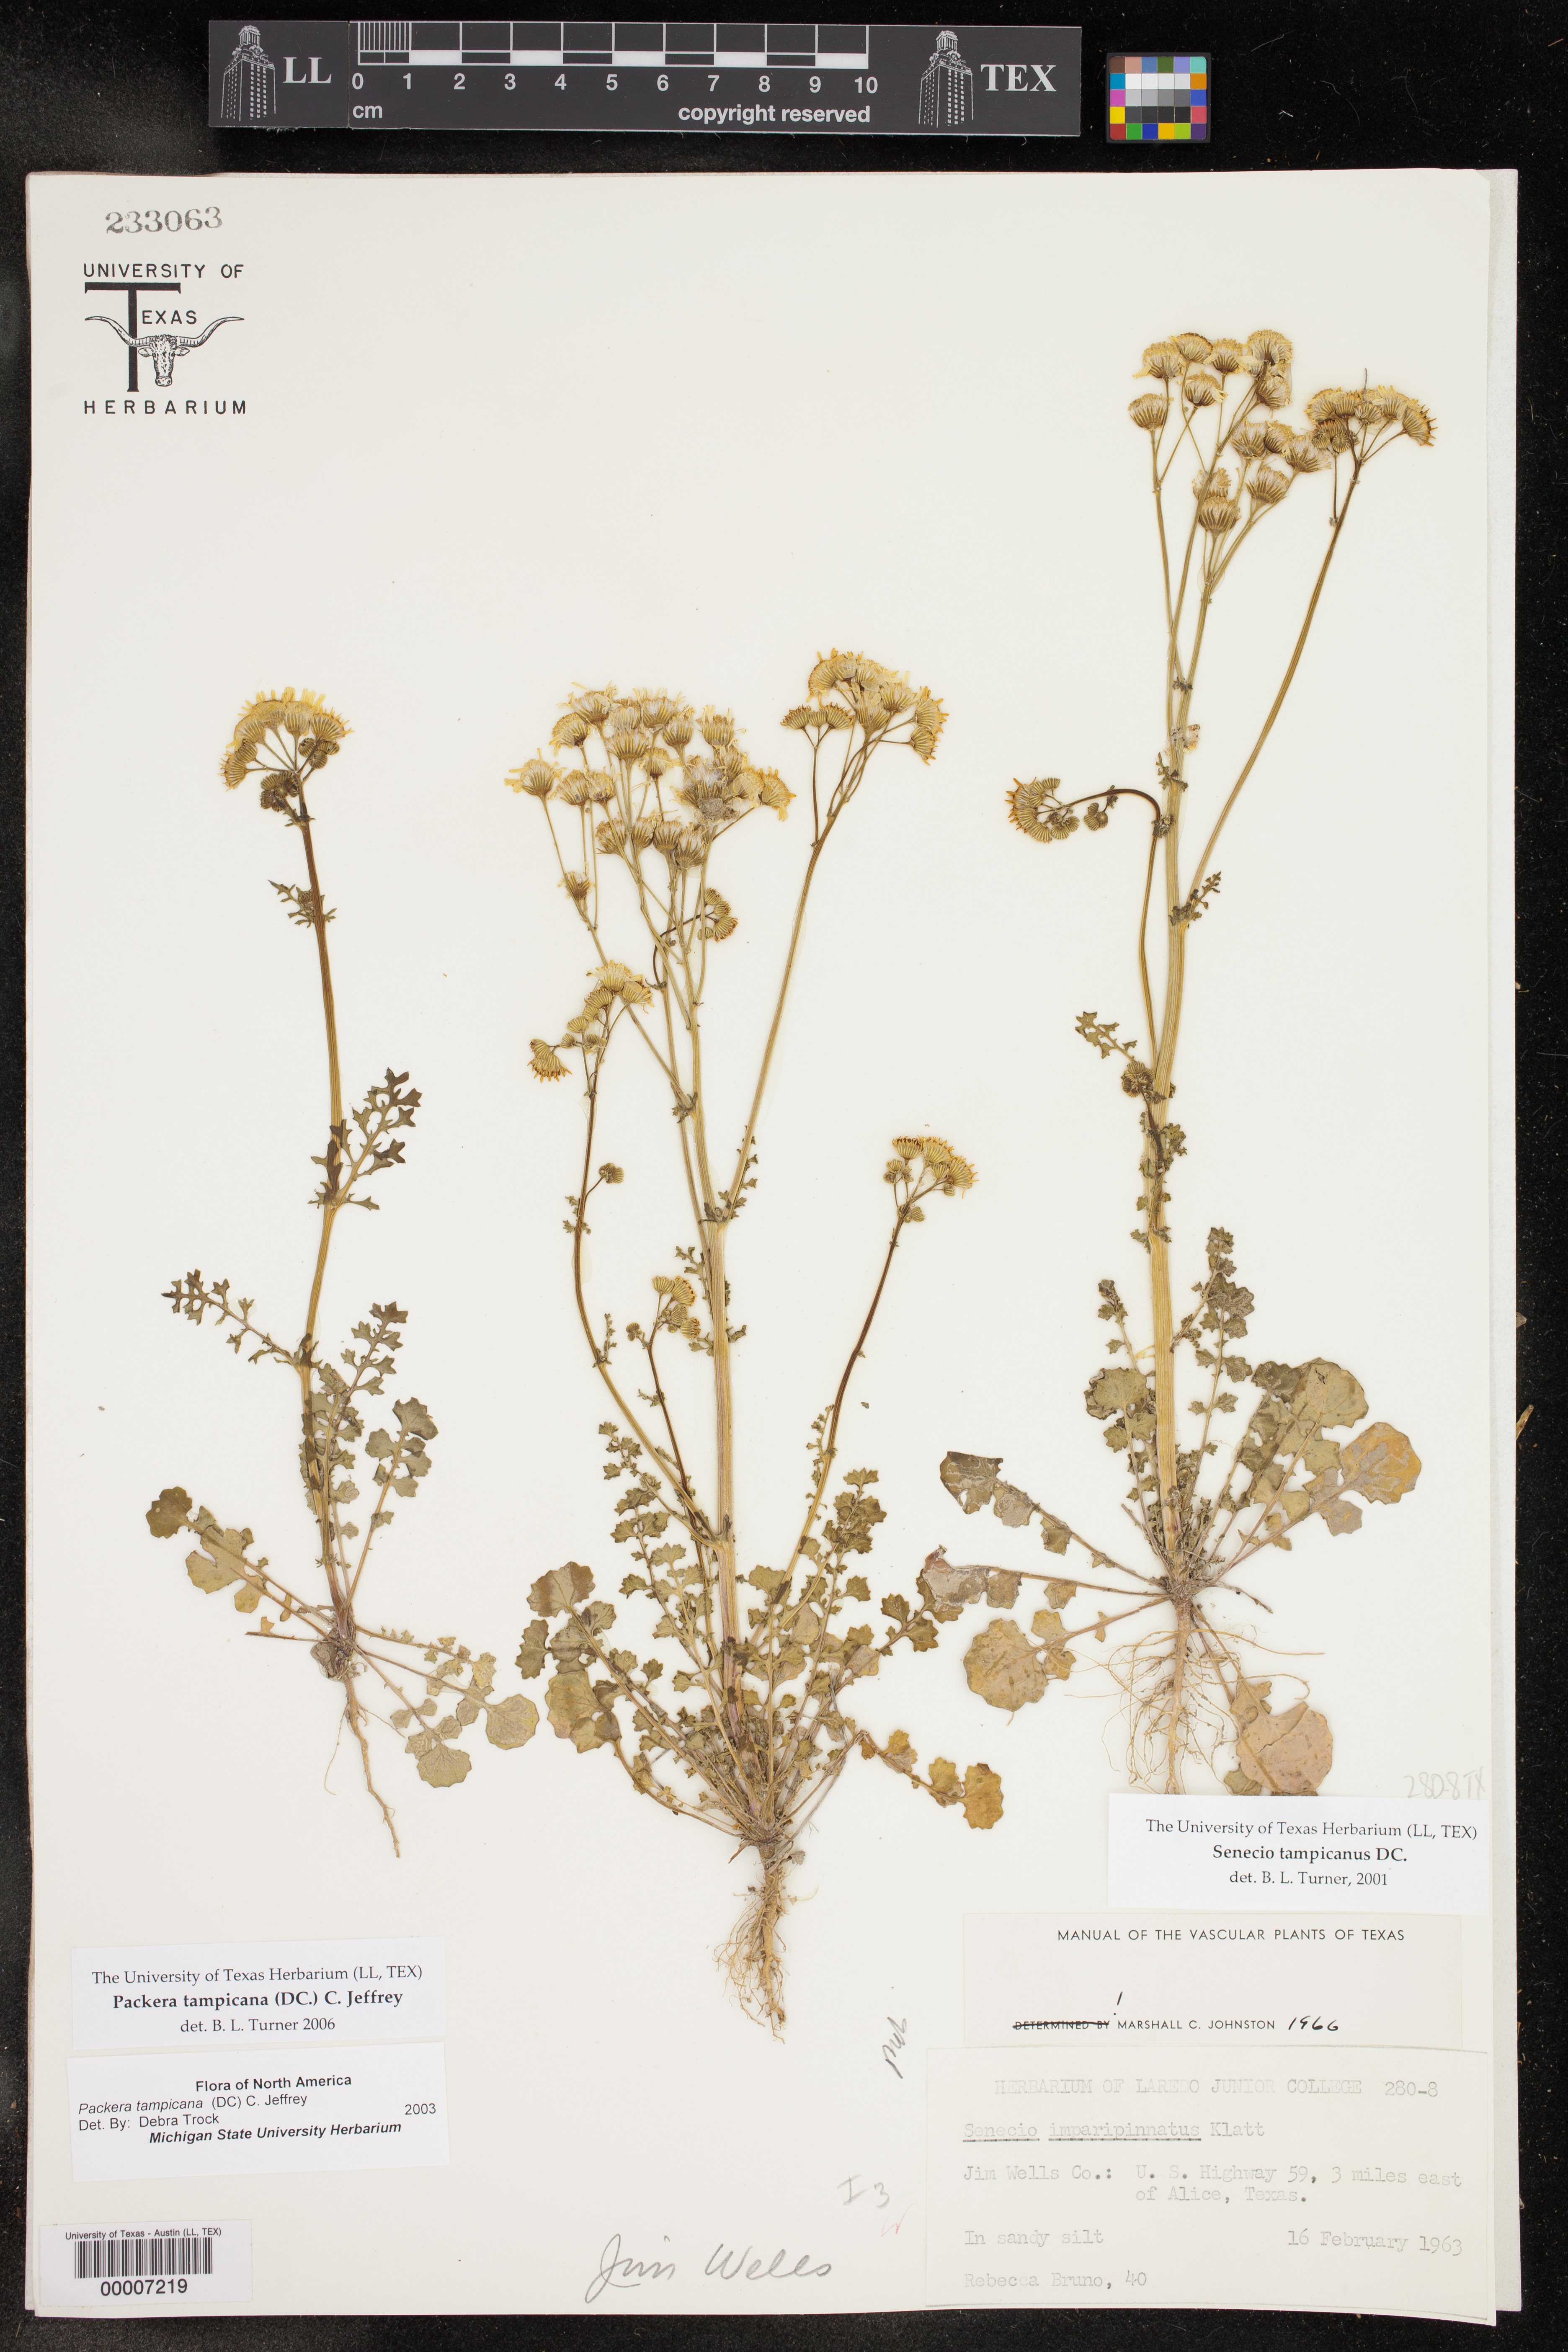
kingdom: Plantae
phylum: Tracheophyta
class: Magnoliopsida
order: Asterales
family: Asteraceae
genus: Packera
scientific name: Packera tampicana
